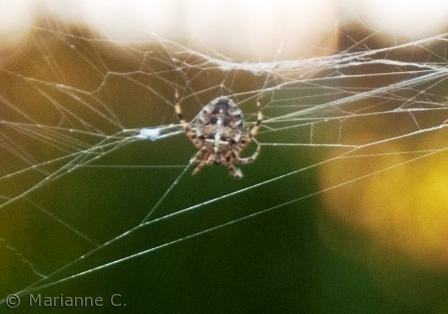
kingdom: Animalia
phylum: Arthropoda
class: Arachnida
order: Araneae
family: Araneidae
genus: Araneus
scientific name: Araneus diadematus
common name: Korsedderkop
